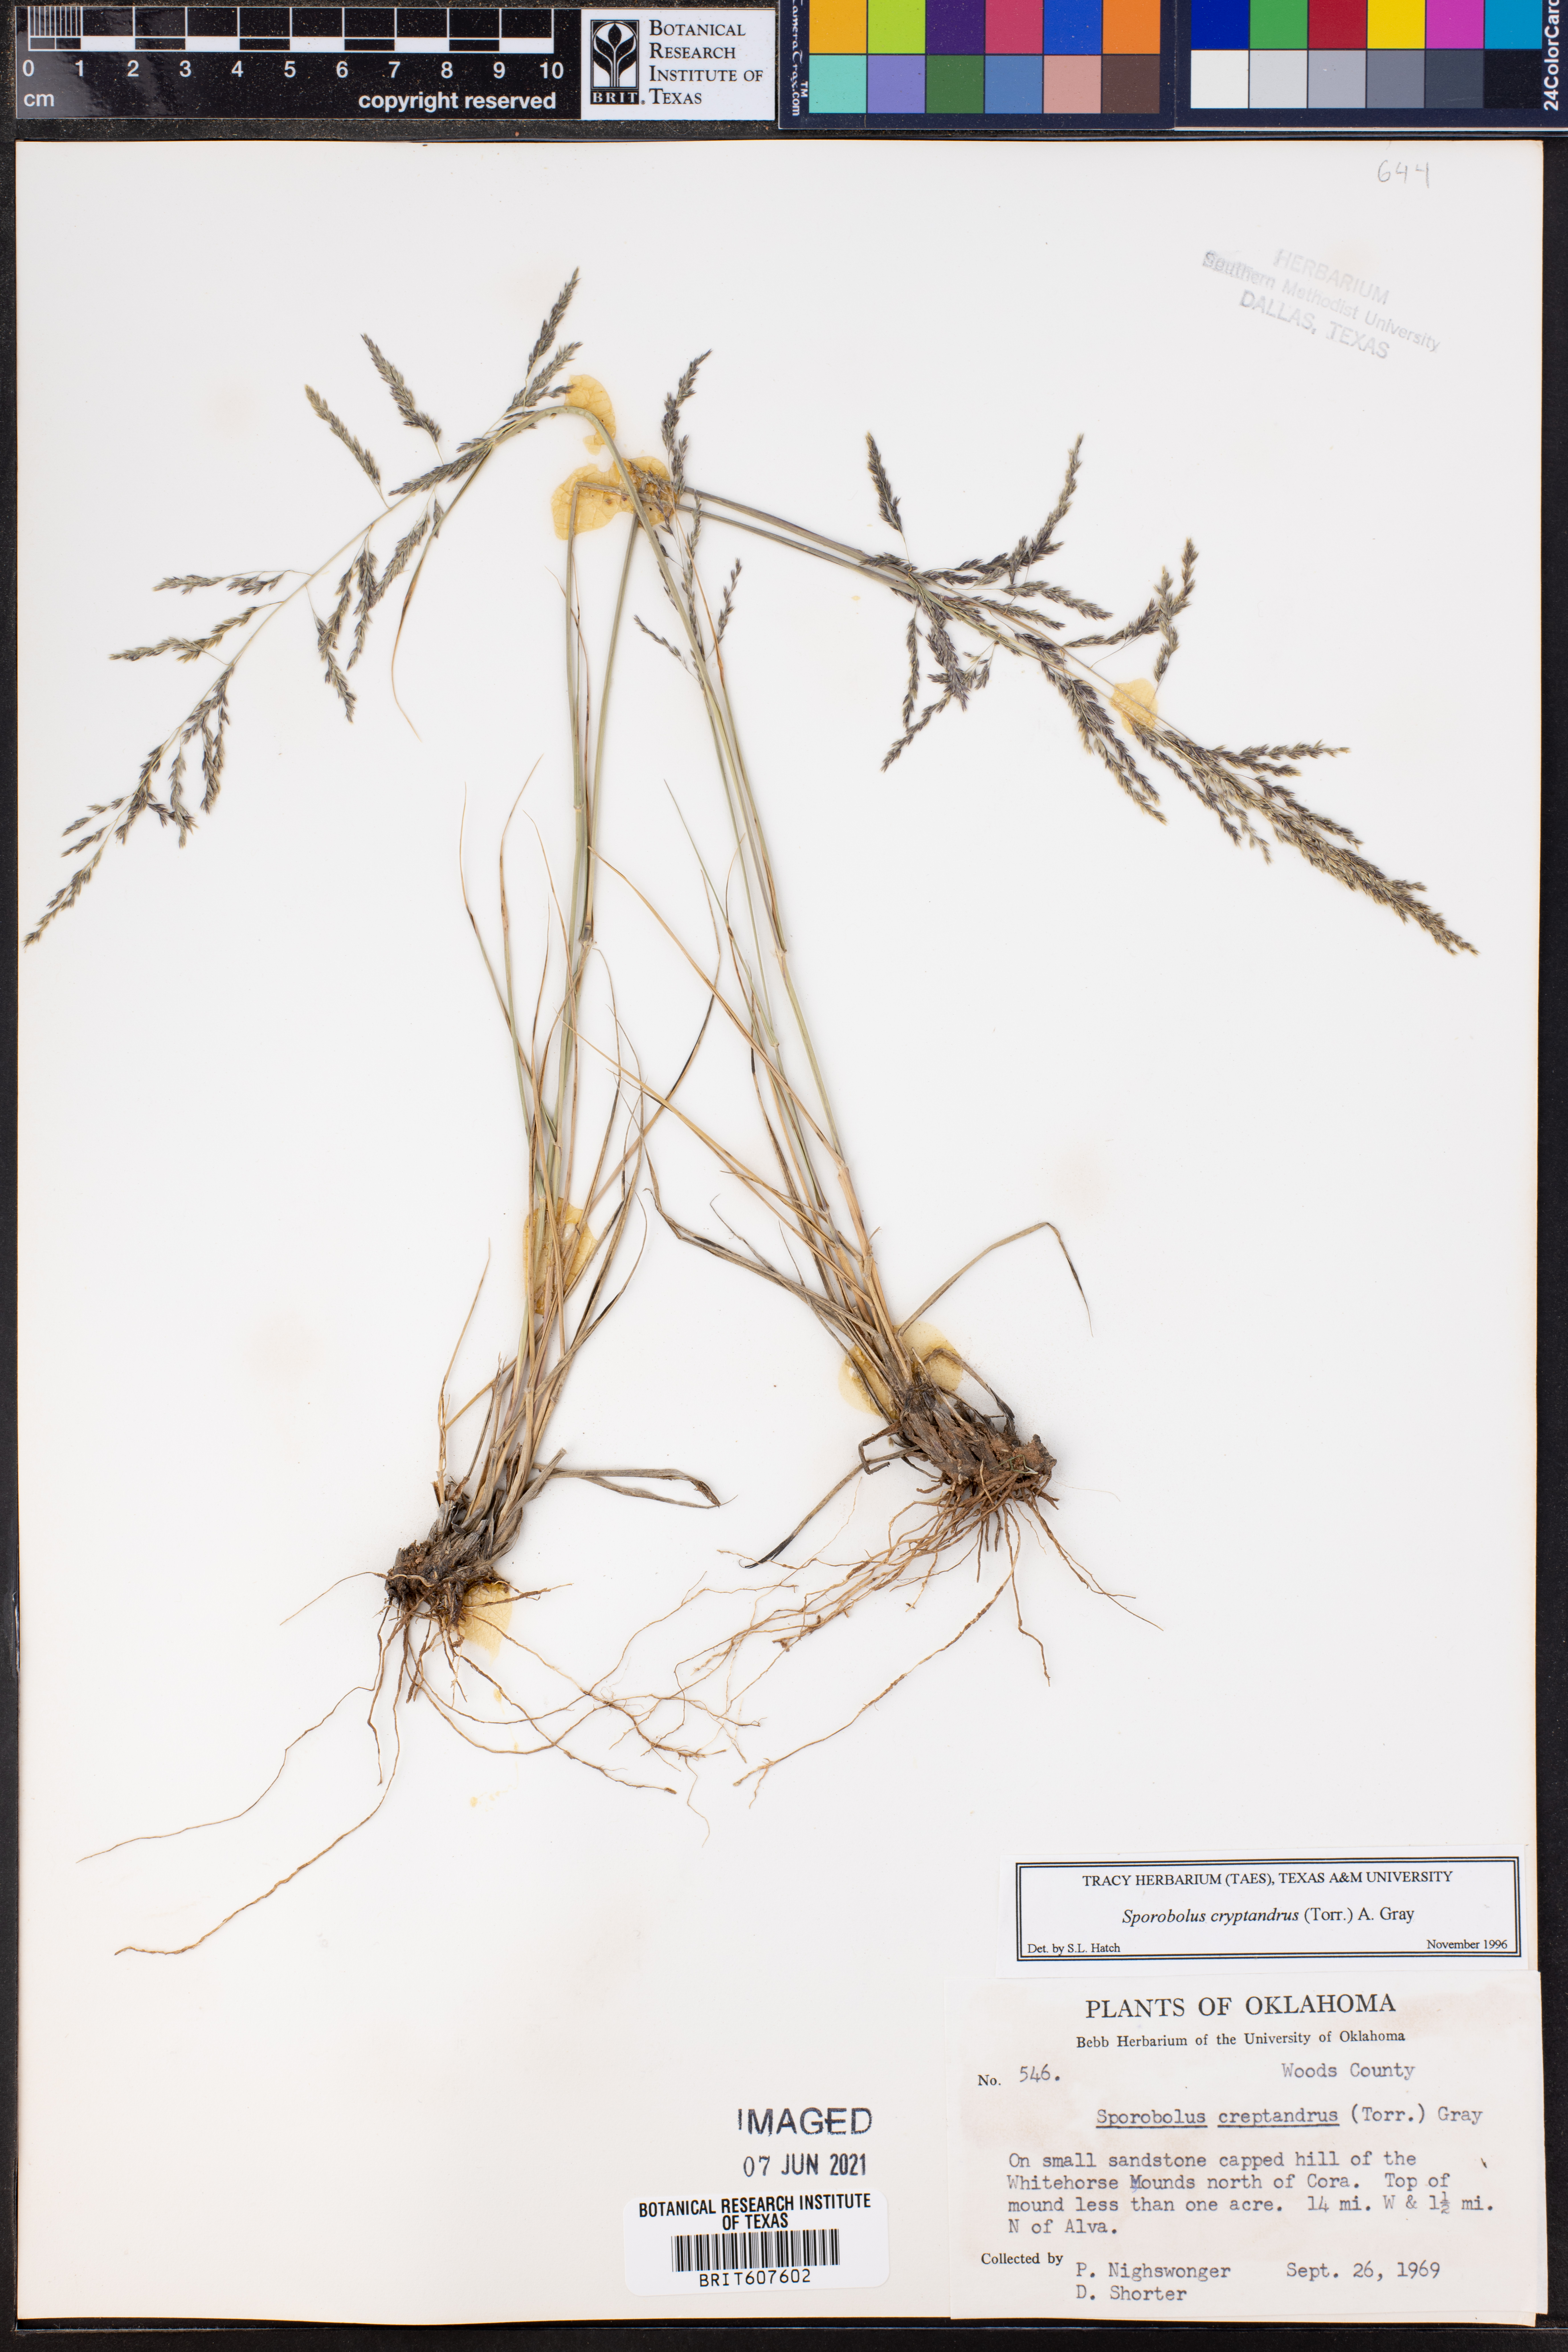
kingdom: Plantae
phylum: Tracheophyta
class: Liliopsida
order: Poales
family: Poaceae
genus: Sporobolus
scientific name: Sporobolus cryptandrus
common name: Sand dropseed
